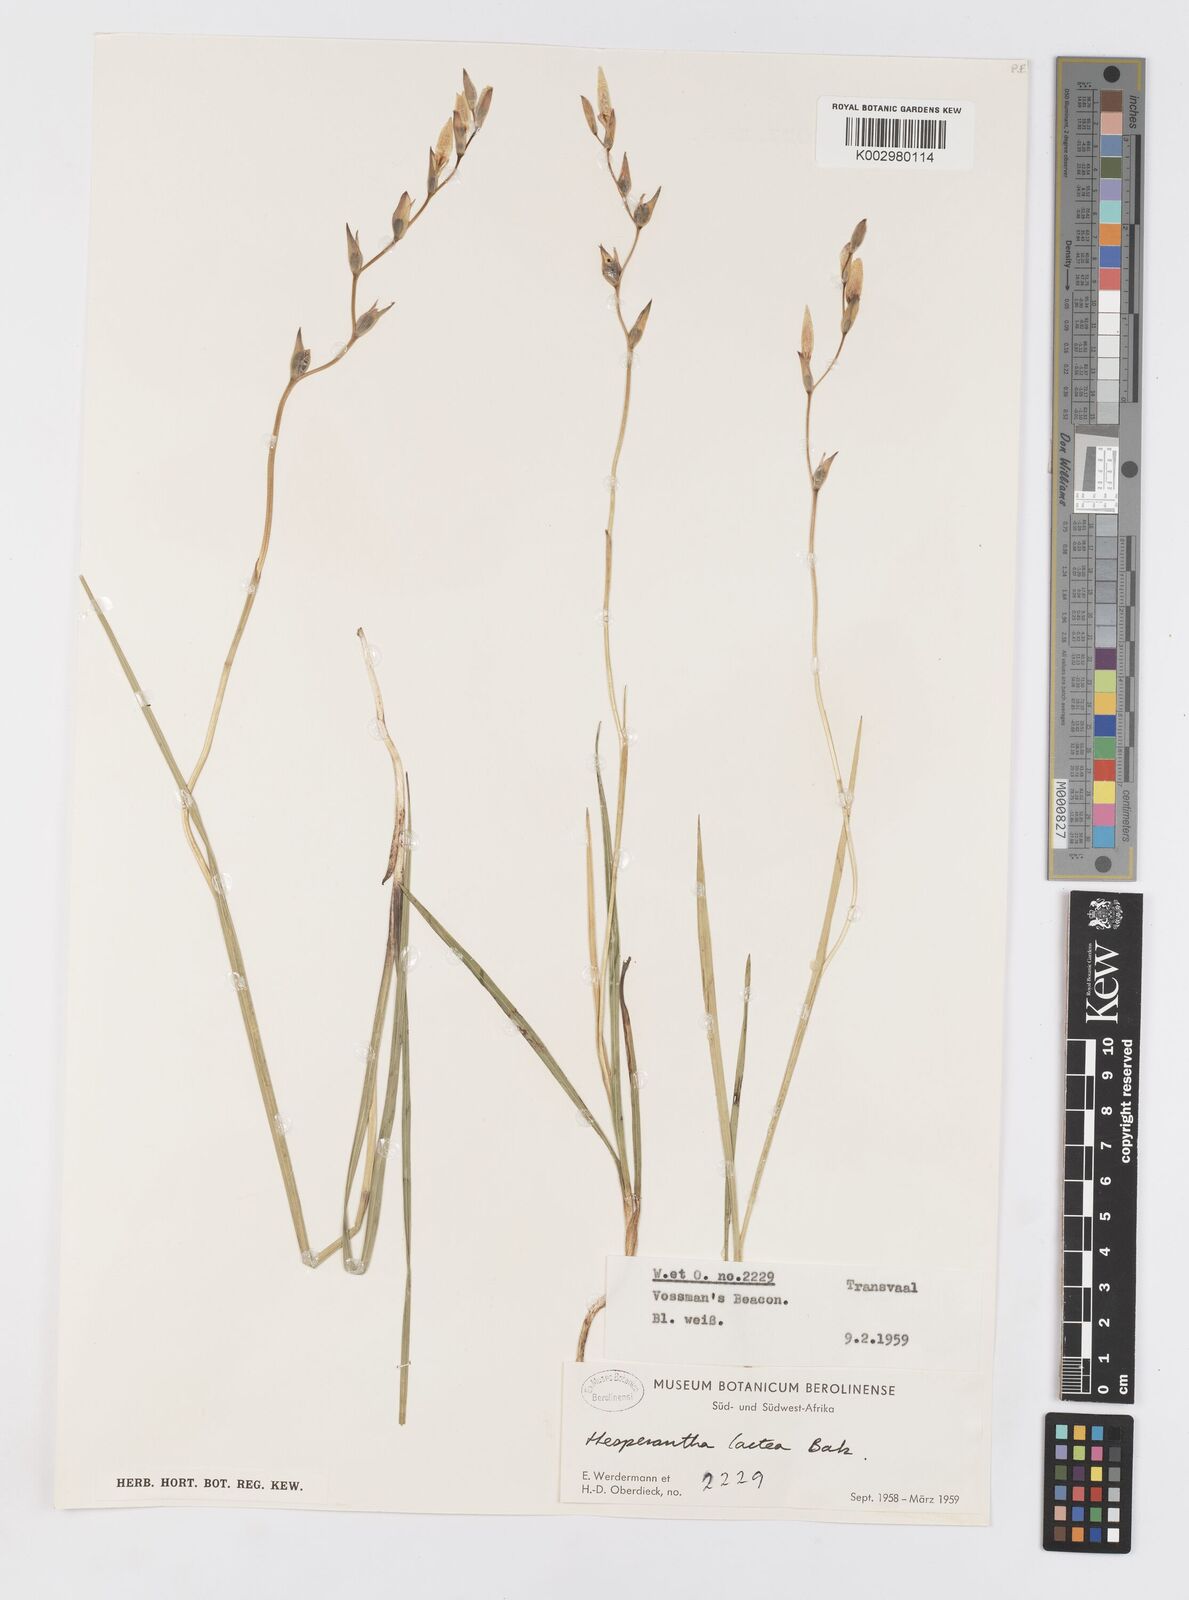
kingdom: Plantae
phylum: Tracheophyta
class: Liliopsida
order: Asparagales
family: Iridaceae
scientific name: Iridaceae
